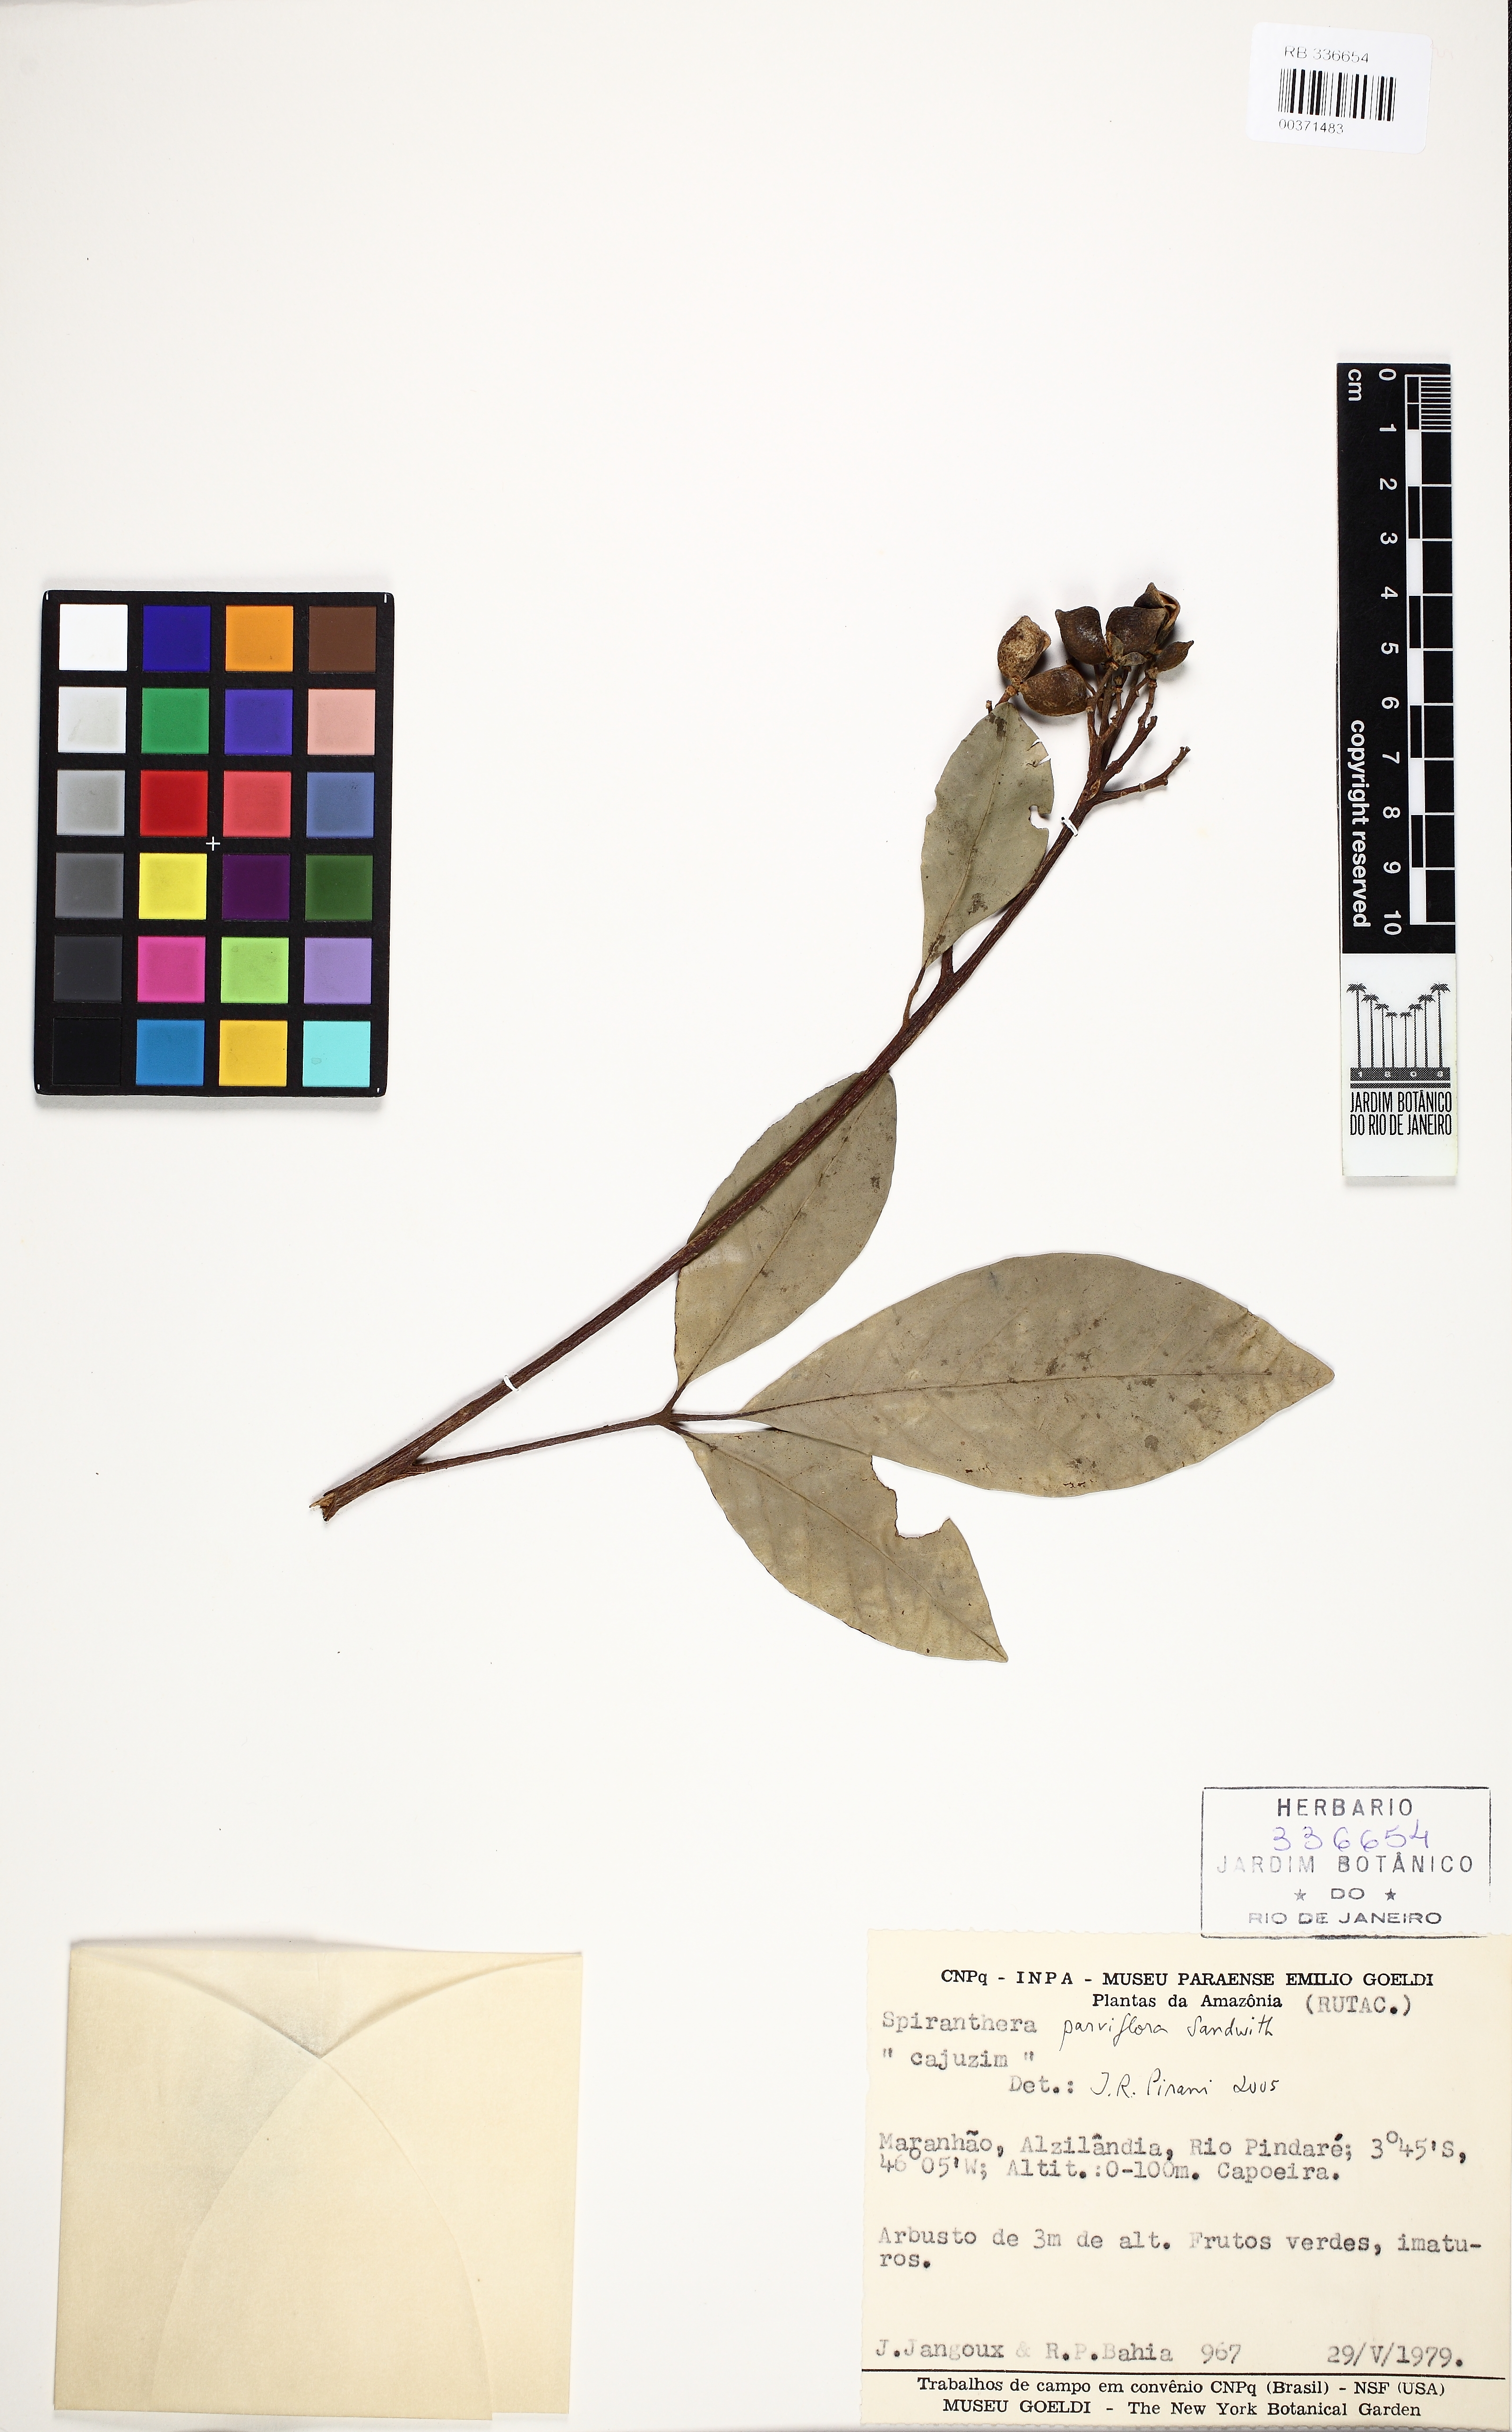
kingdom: Plantae
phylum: Tracheophyta
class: Magnoliopsida
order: Sapindales
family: Rutaceae
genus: Spiranthera
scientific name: Spiranthera parviflora
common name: Mamuri bali
